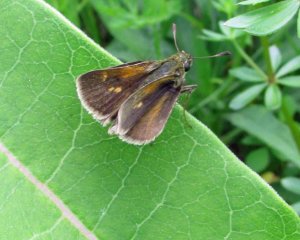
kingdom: Animalia
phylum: Arthropoda
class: Insecta
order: Lepidoptera
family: Hesperiidae
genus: Polites
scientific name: Polites themistocles
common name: Tawny-edged Skipper
